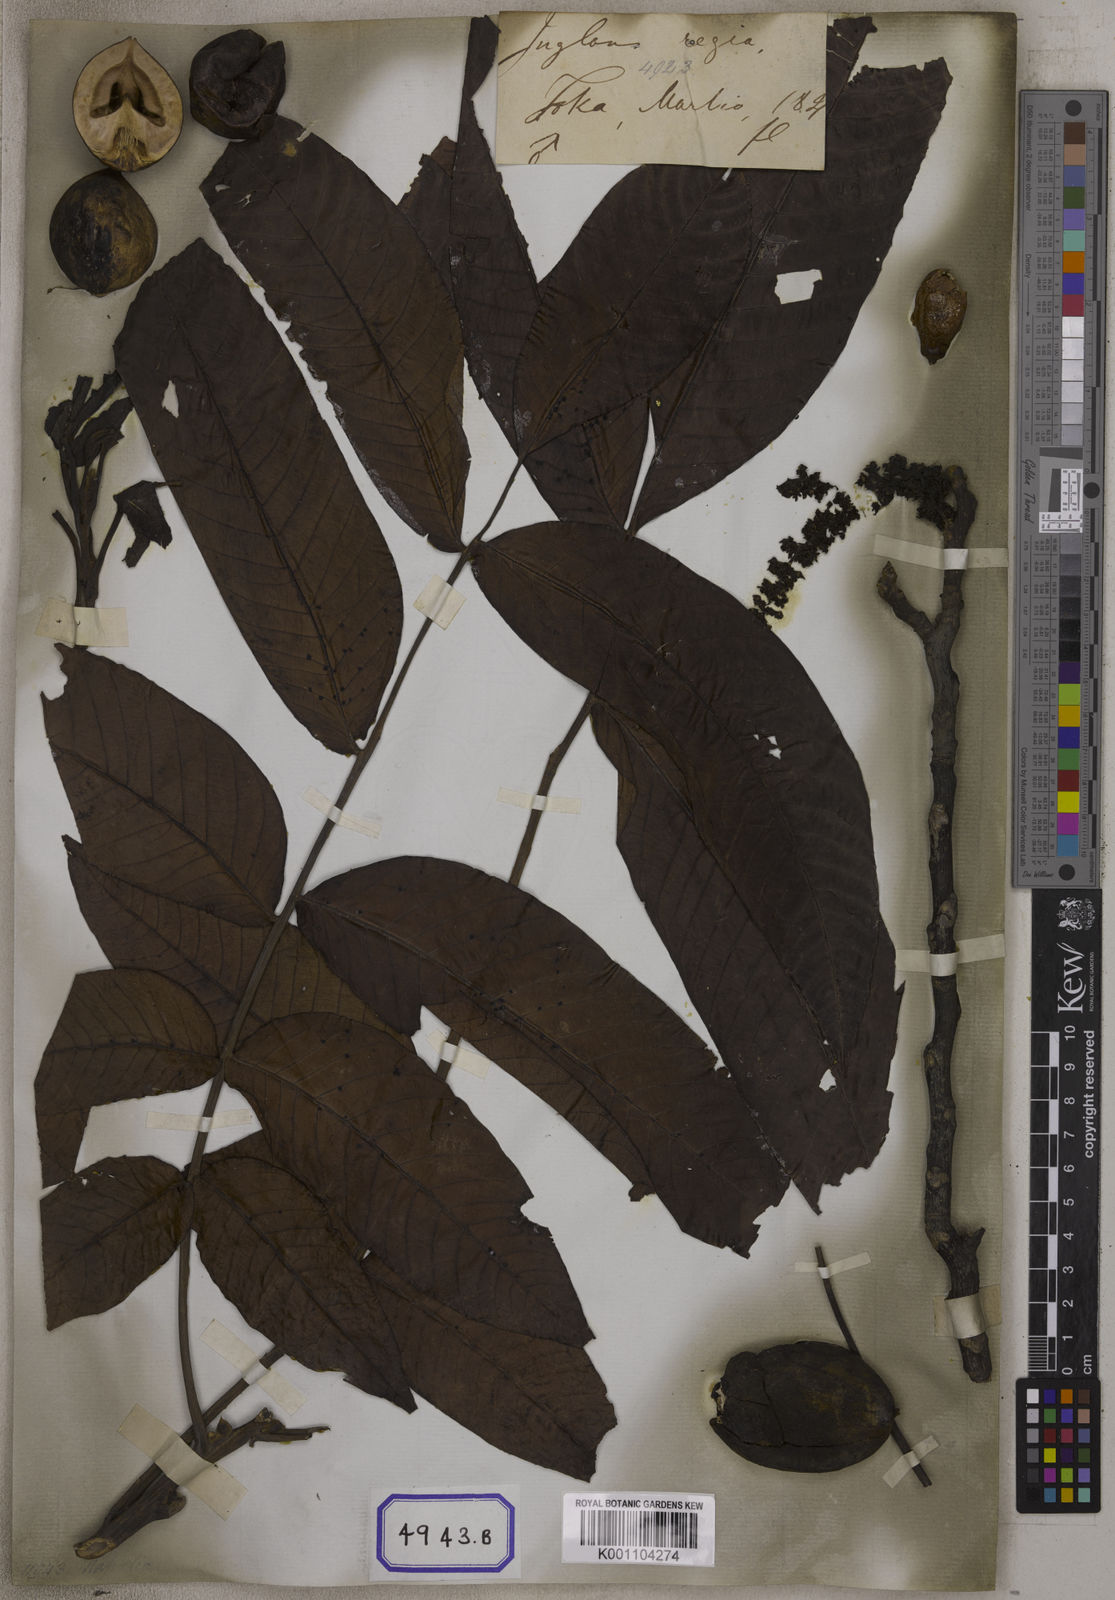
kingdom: Plantae
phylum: Tracheophyta
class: Magnoliopsida
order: Fagales
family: Juglandaceae
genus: Juglans
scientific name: Juglans regia
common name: Walnut
